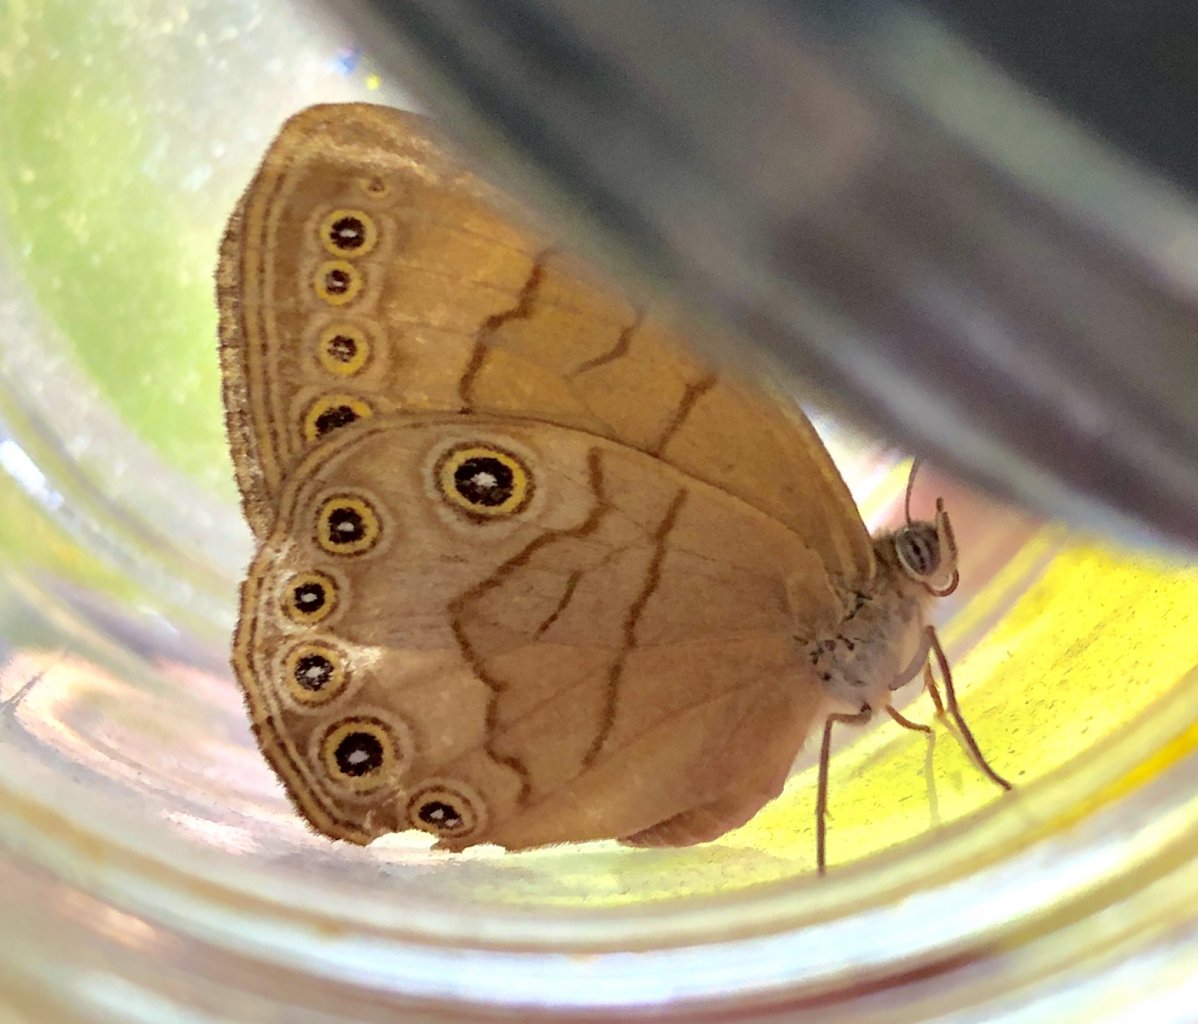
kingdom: Animalia
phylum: Arthropoda
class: Insecta
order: Lepidoptera
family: Nymphalidae
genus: Lethe
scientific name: Lethe eurydice
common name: Appalachian Eyed Brown
